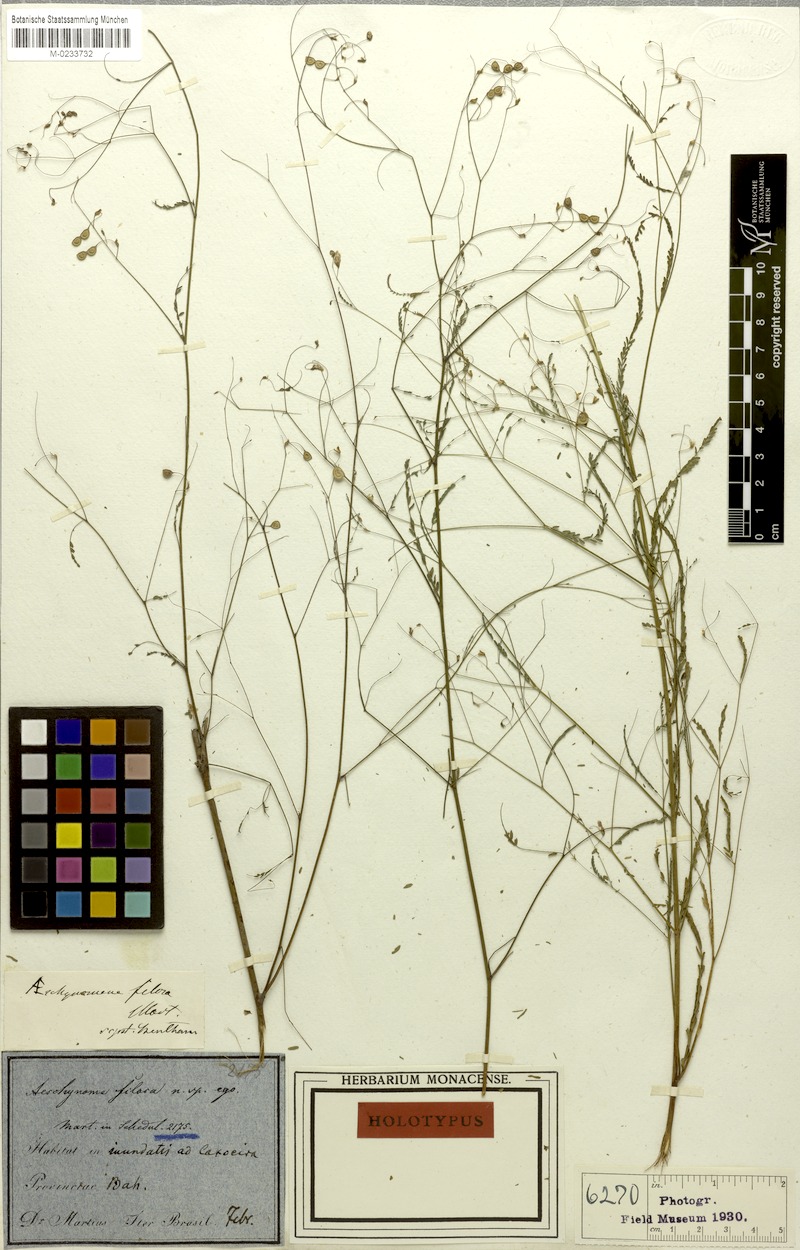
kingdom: Plantae
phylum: Tracheophyta
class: Magnoliopsida
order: Fabales
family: Fabaceae
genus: Aeschynomene
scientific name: Aeschynomene filosa
